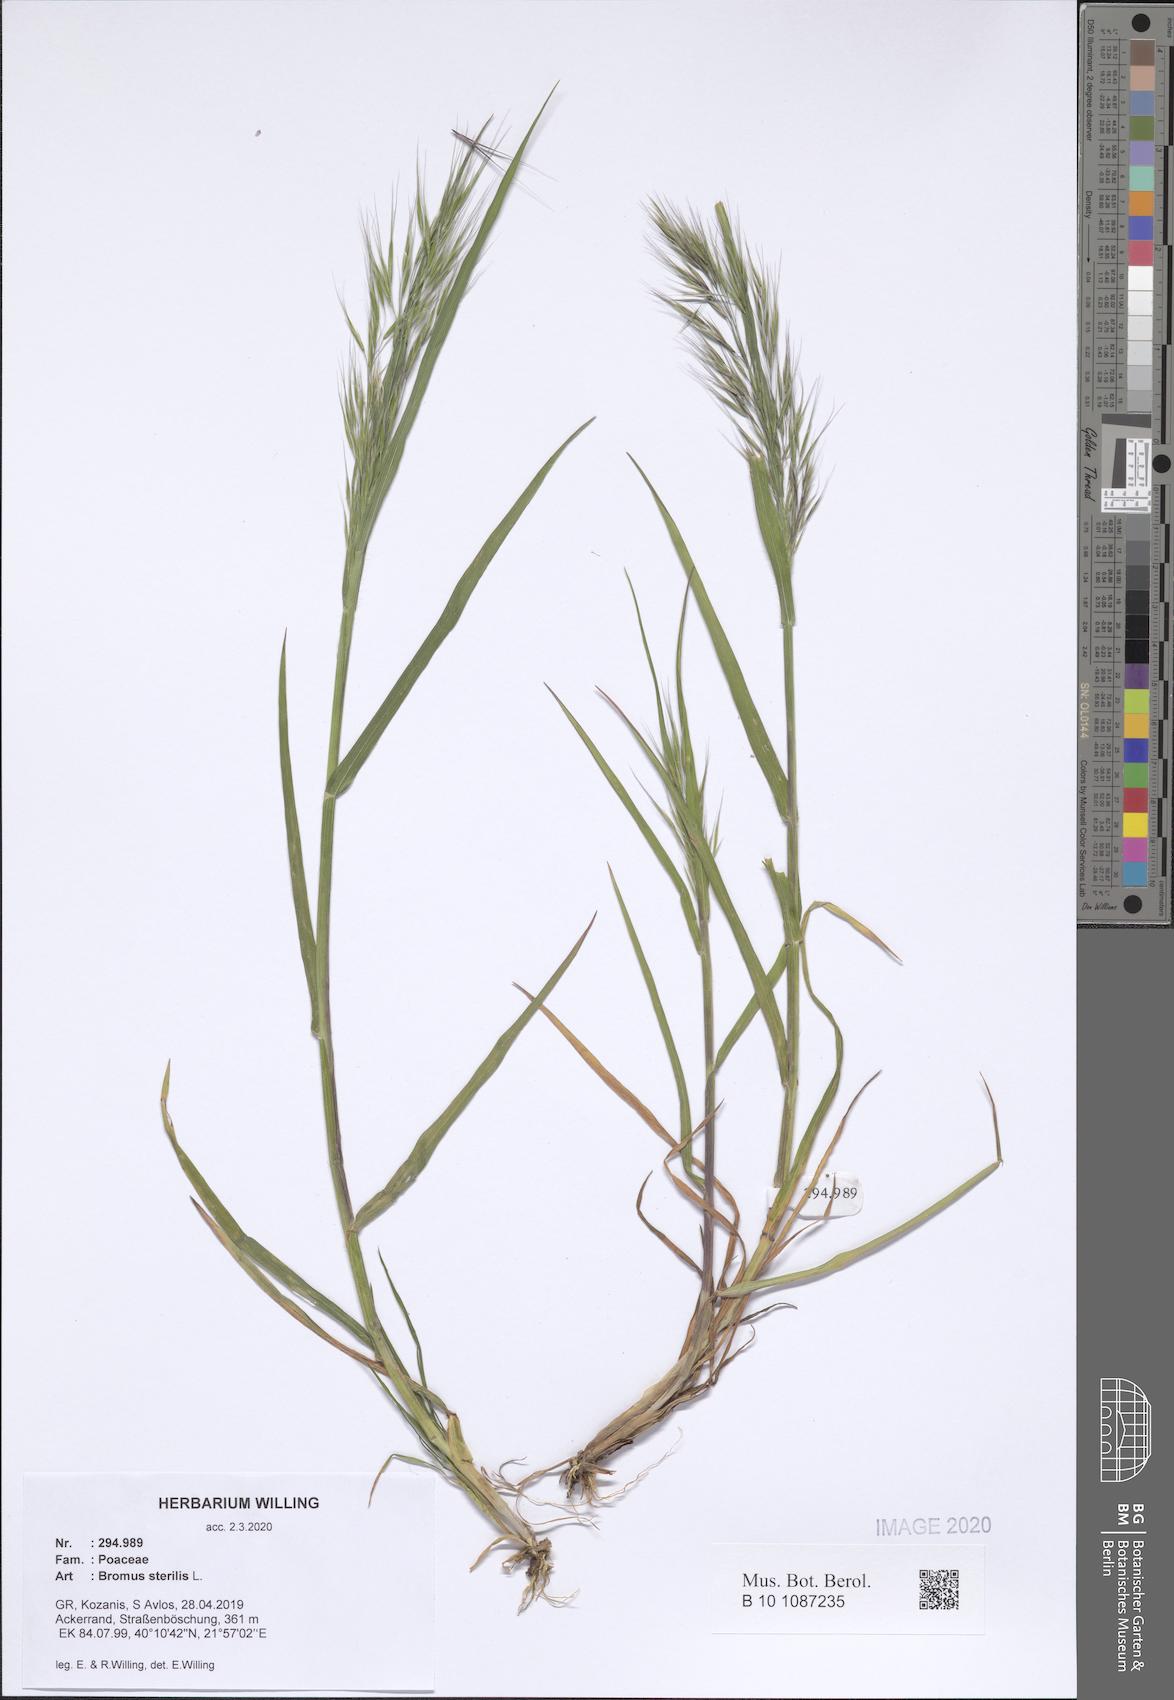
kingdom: Plantae
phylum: Tracheophyta
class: Liliopsida
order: Poales
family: Poaceae
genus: Bromus
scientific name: Bromus sterilis
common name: Poverty brome
